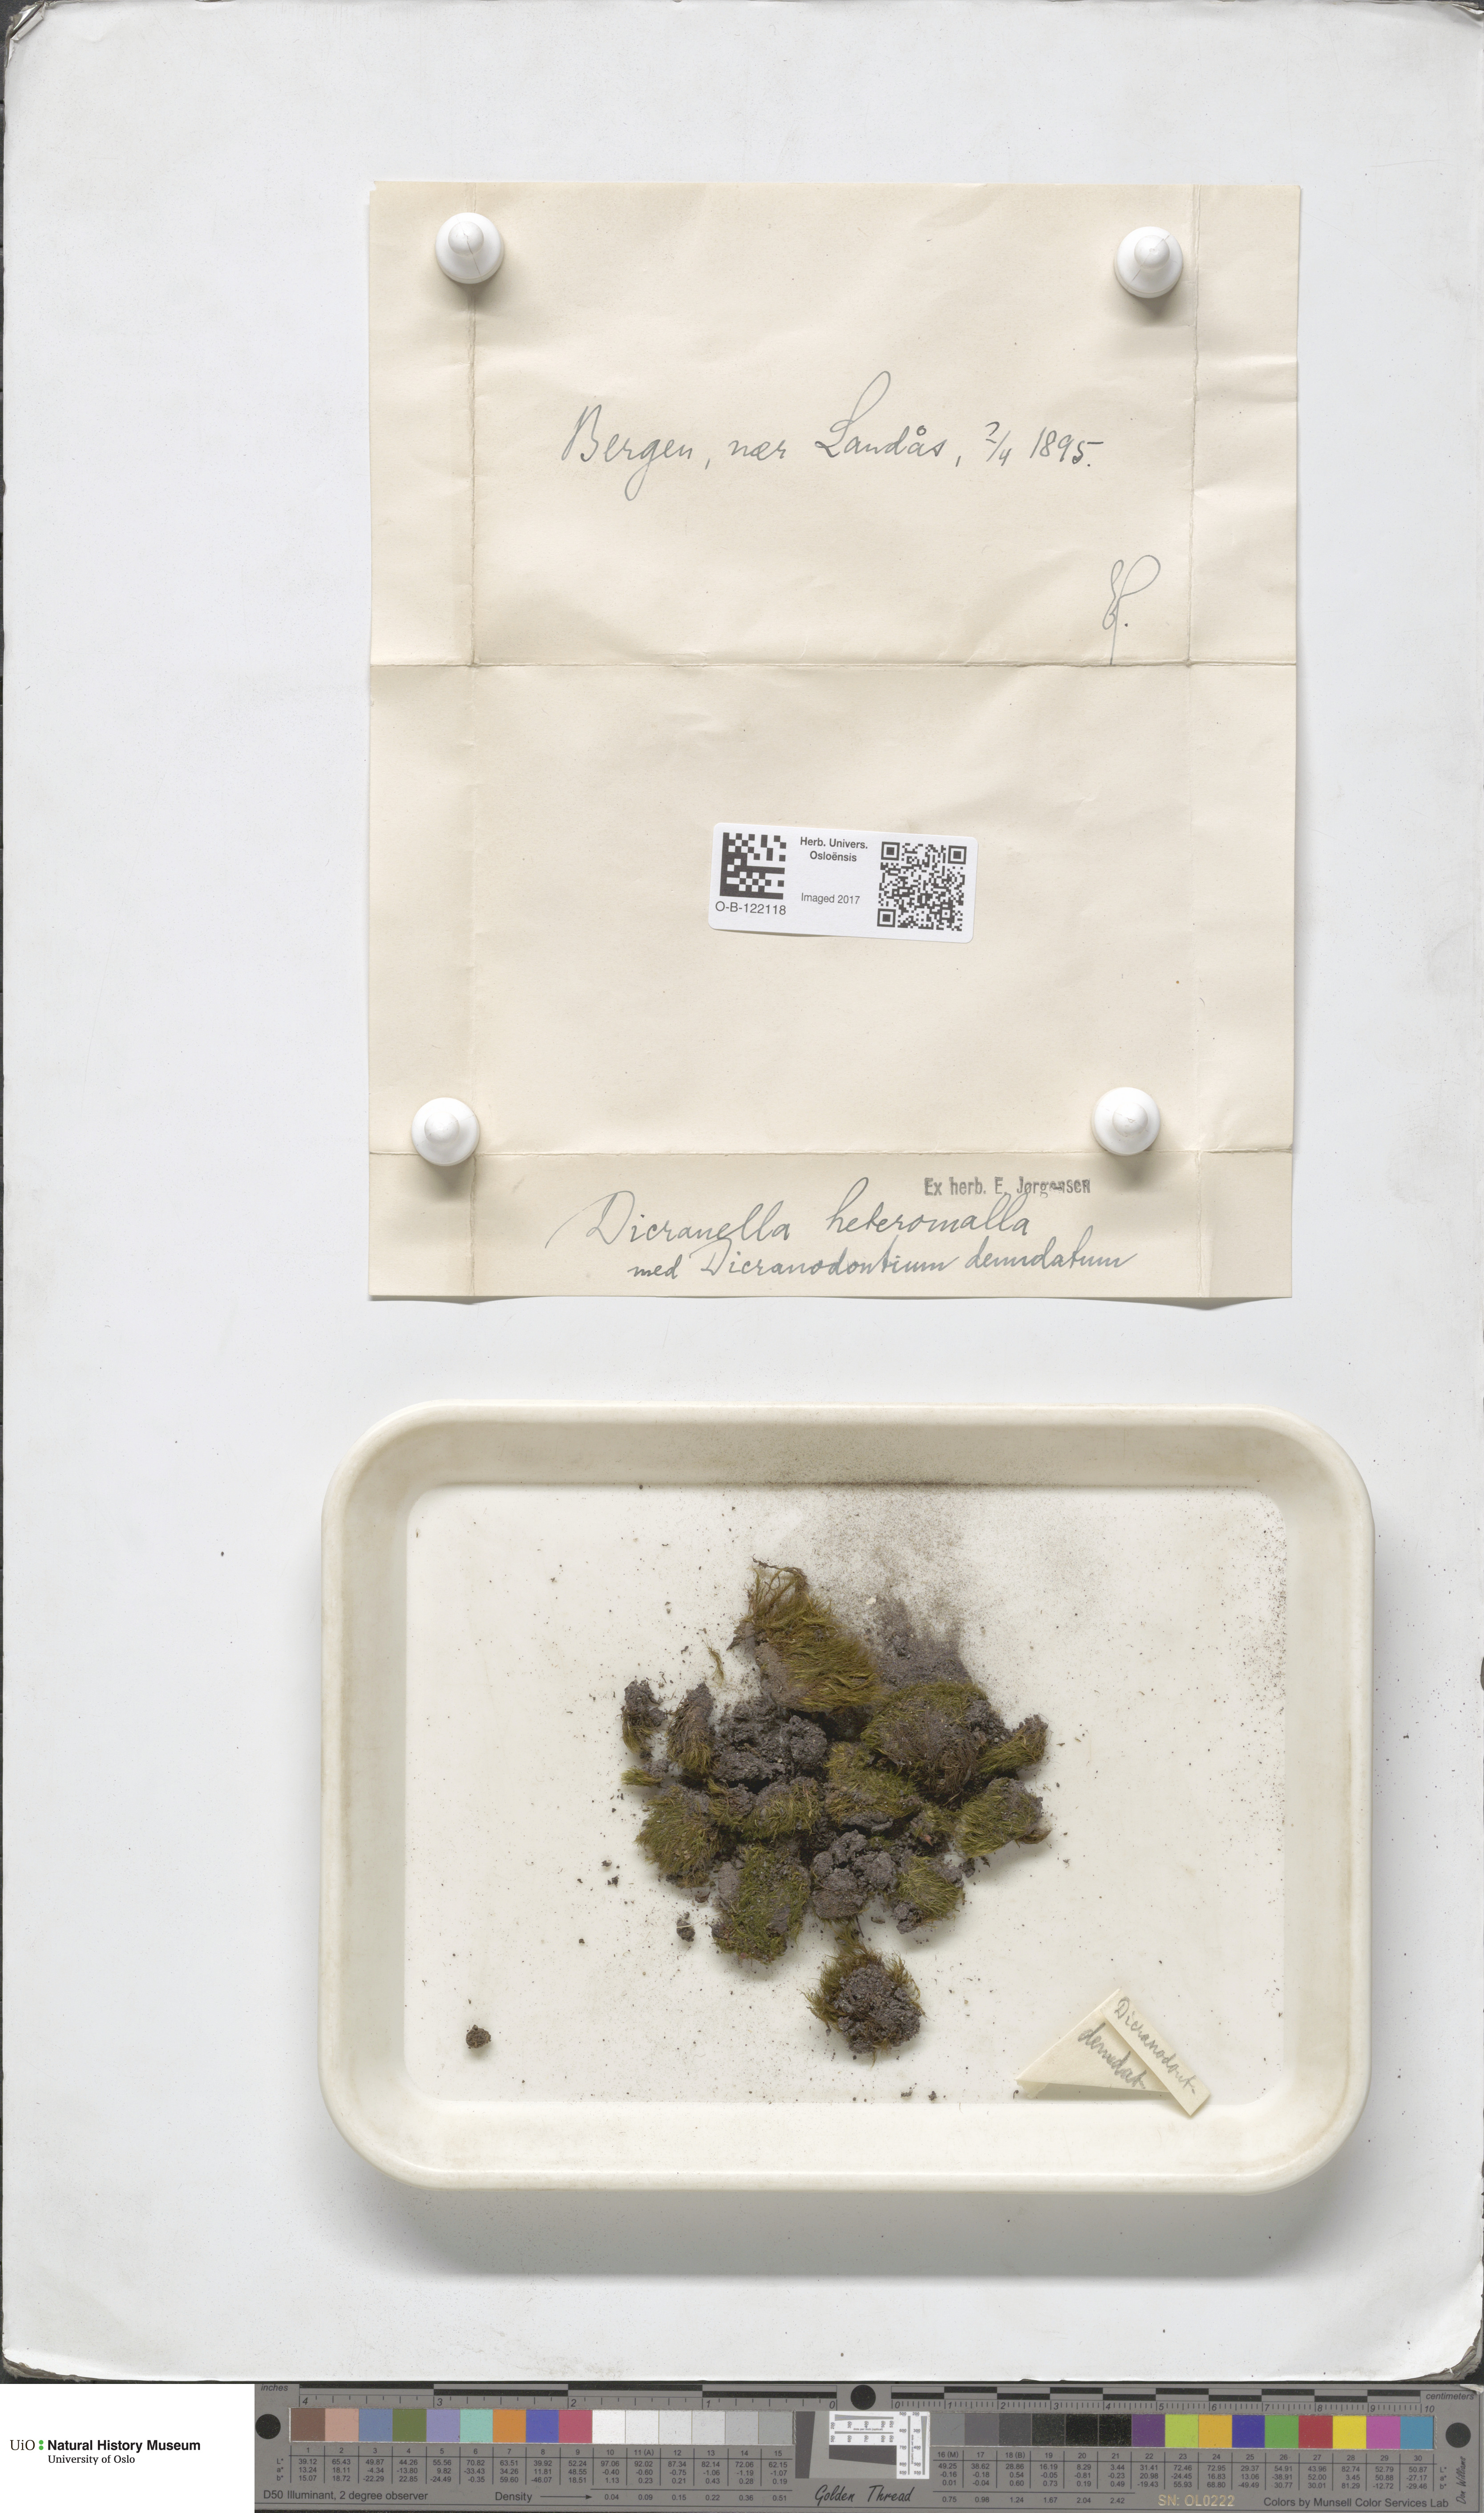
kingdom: Plantae
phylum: Bryophyta
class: Bryopsida
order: Dicranales
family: Dicranellaceae
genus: Dicranella
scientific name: Dicranella heteromalla
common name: Silky forklet moss
